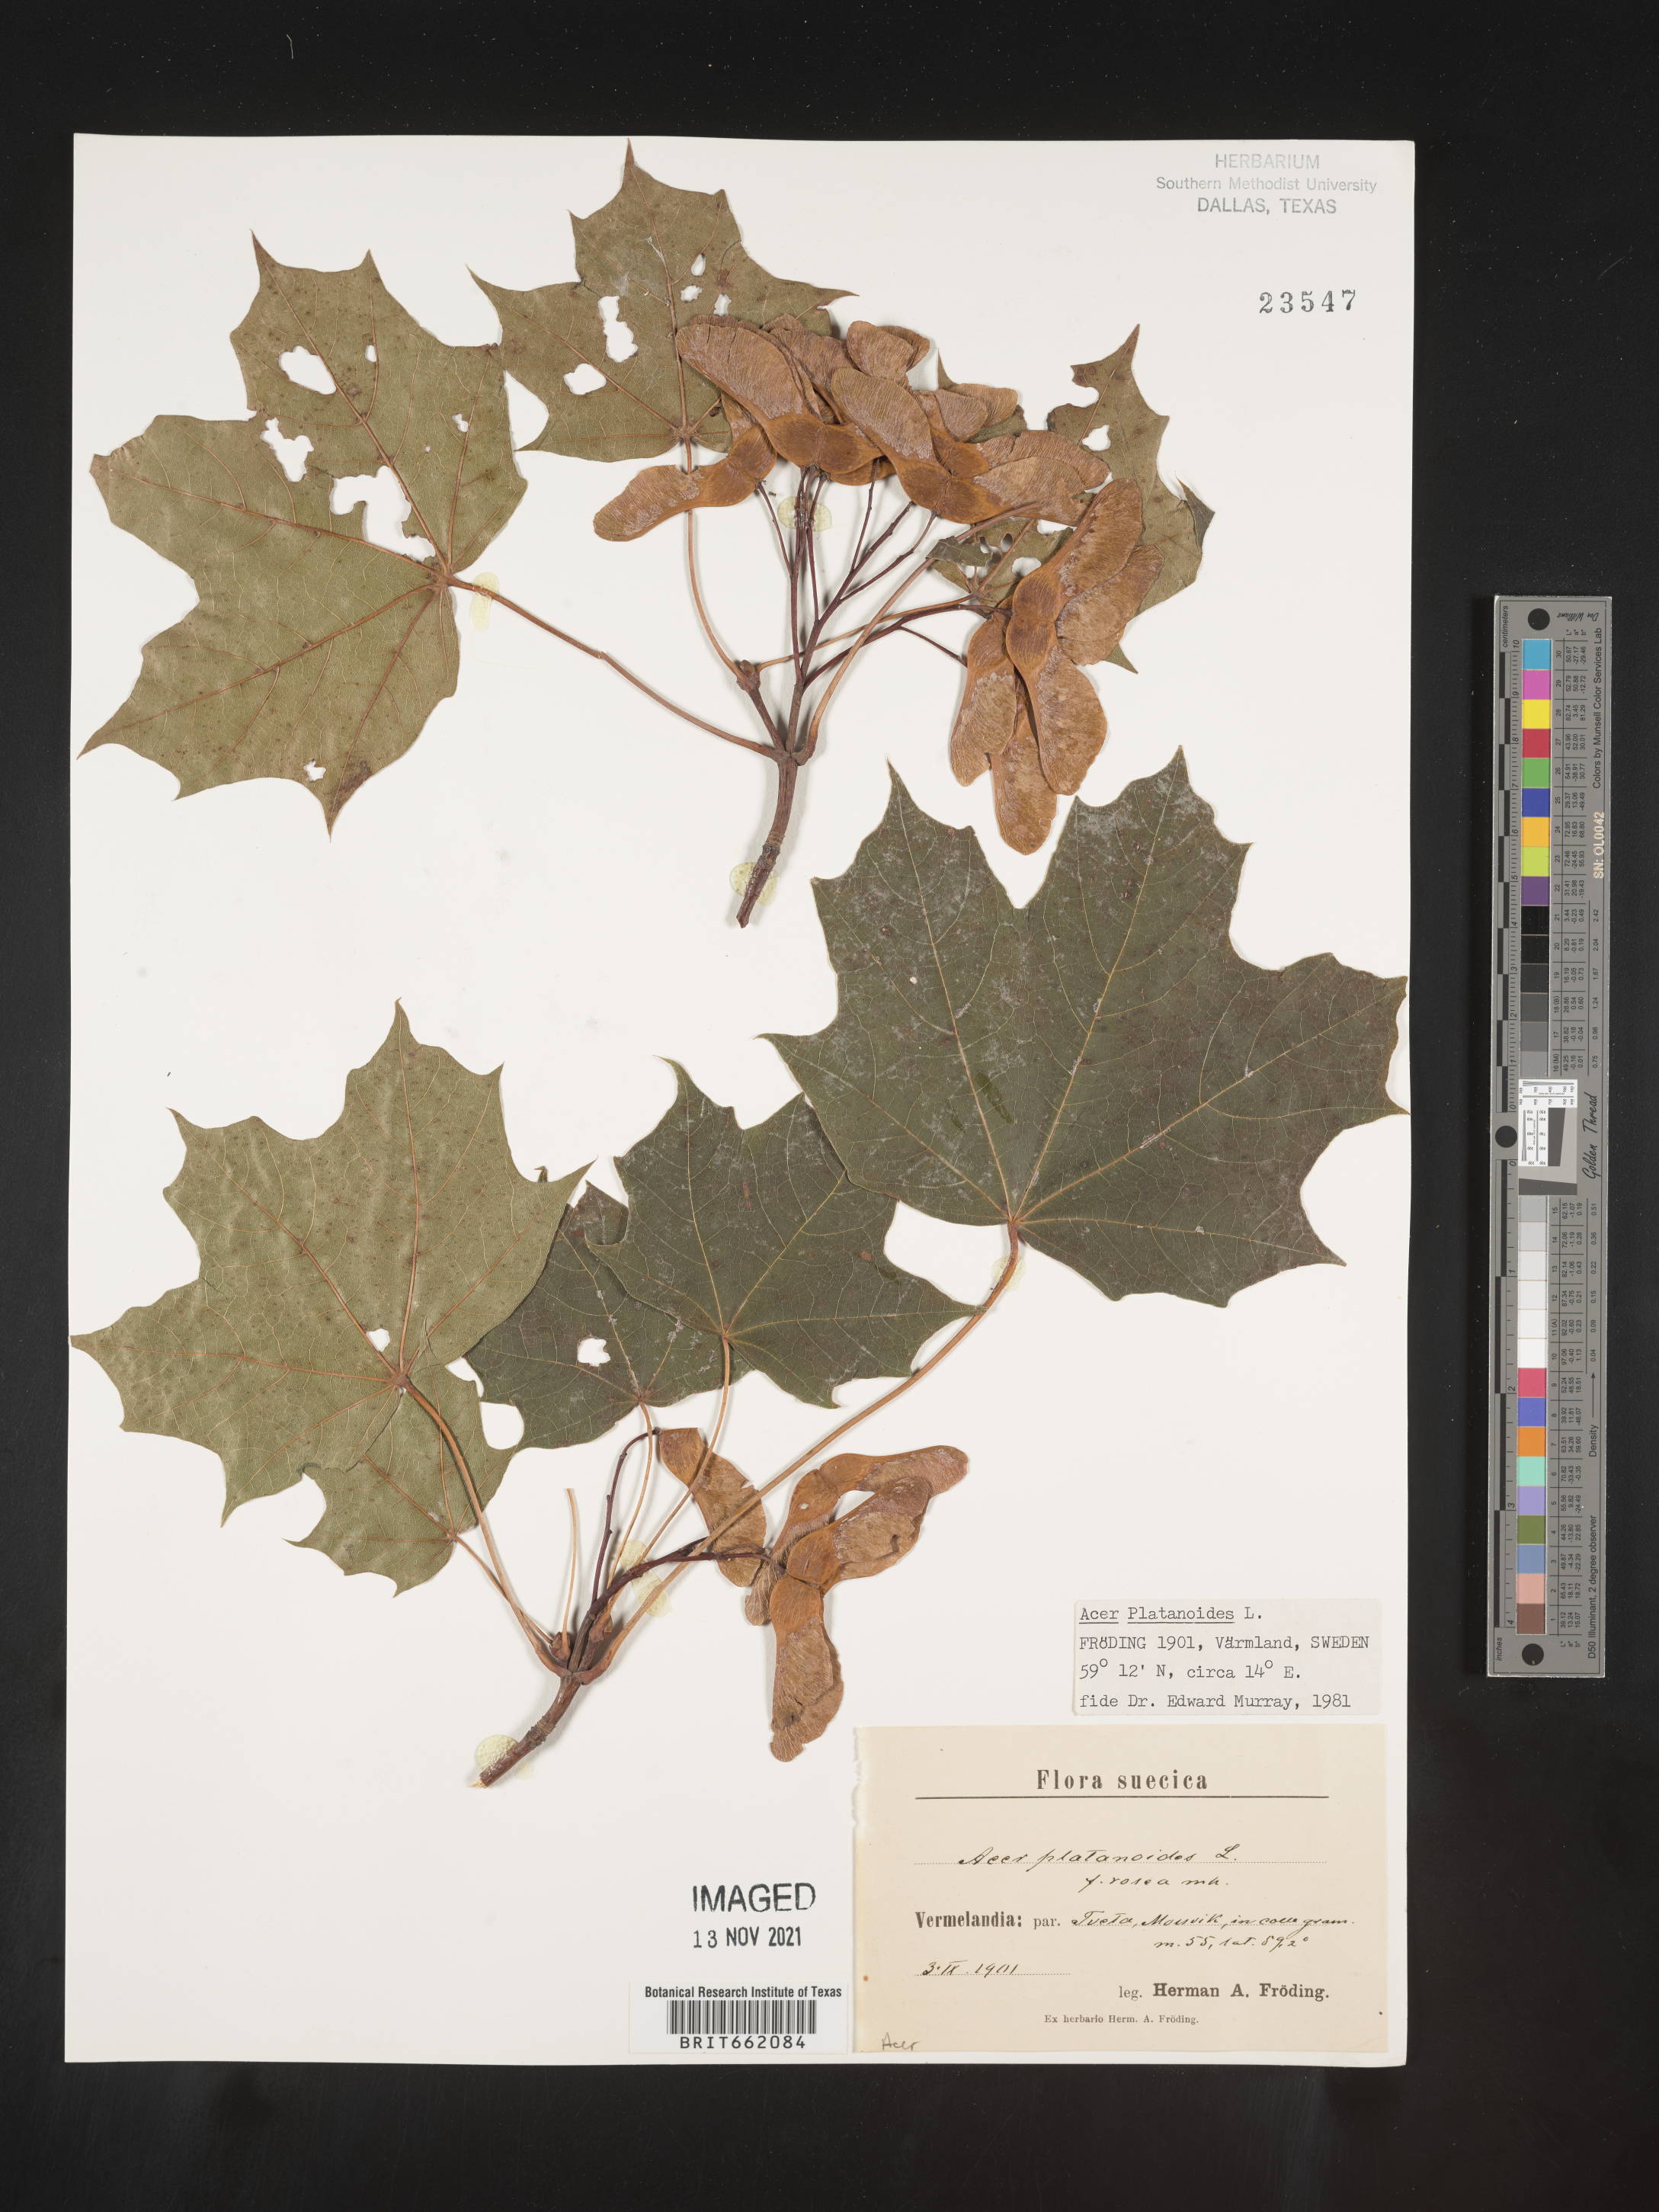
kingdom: Plantae
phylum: Tracheophyta
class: Magnoliopsida
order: Sapindales
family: Sapindaceae
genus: Acer
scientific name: Acer
